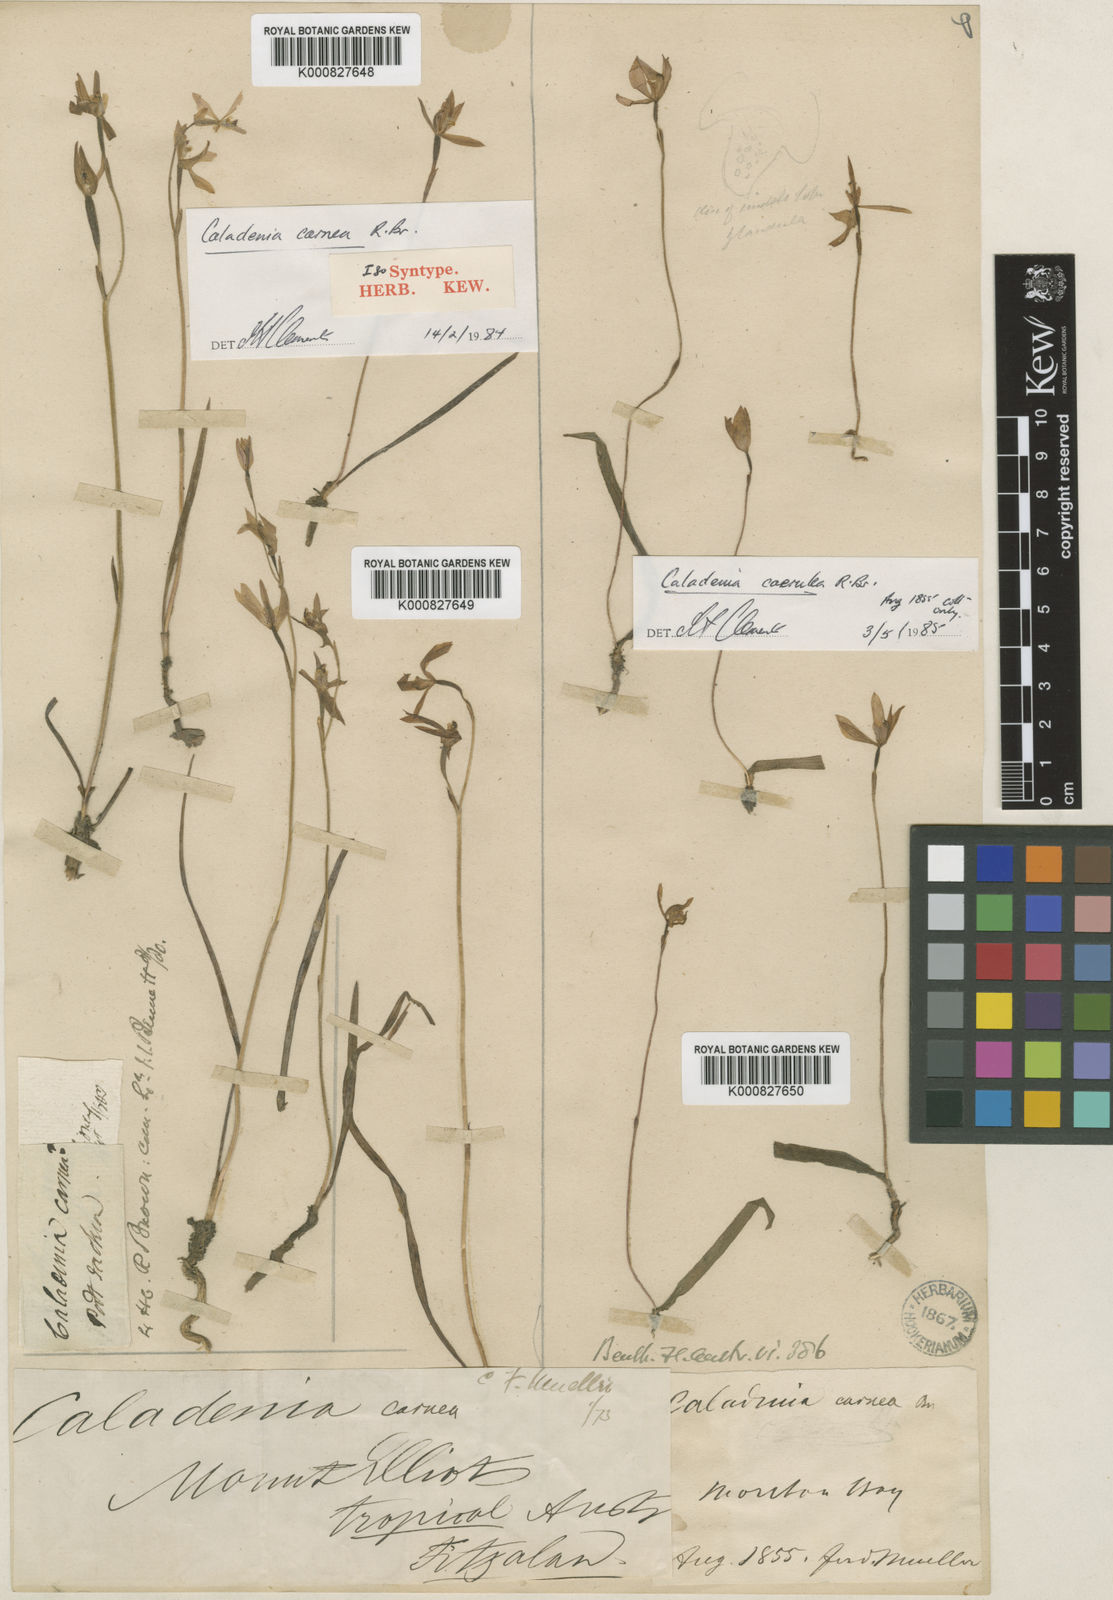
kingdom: Plantae
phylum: Tracheophyta
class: Liliopsida
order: Asparagales
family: Orchidaceae
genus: Caladenia
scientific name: Caladenia carnea
